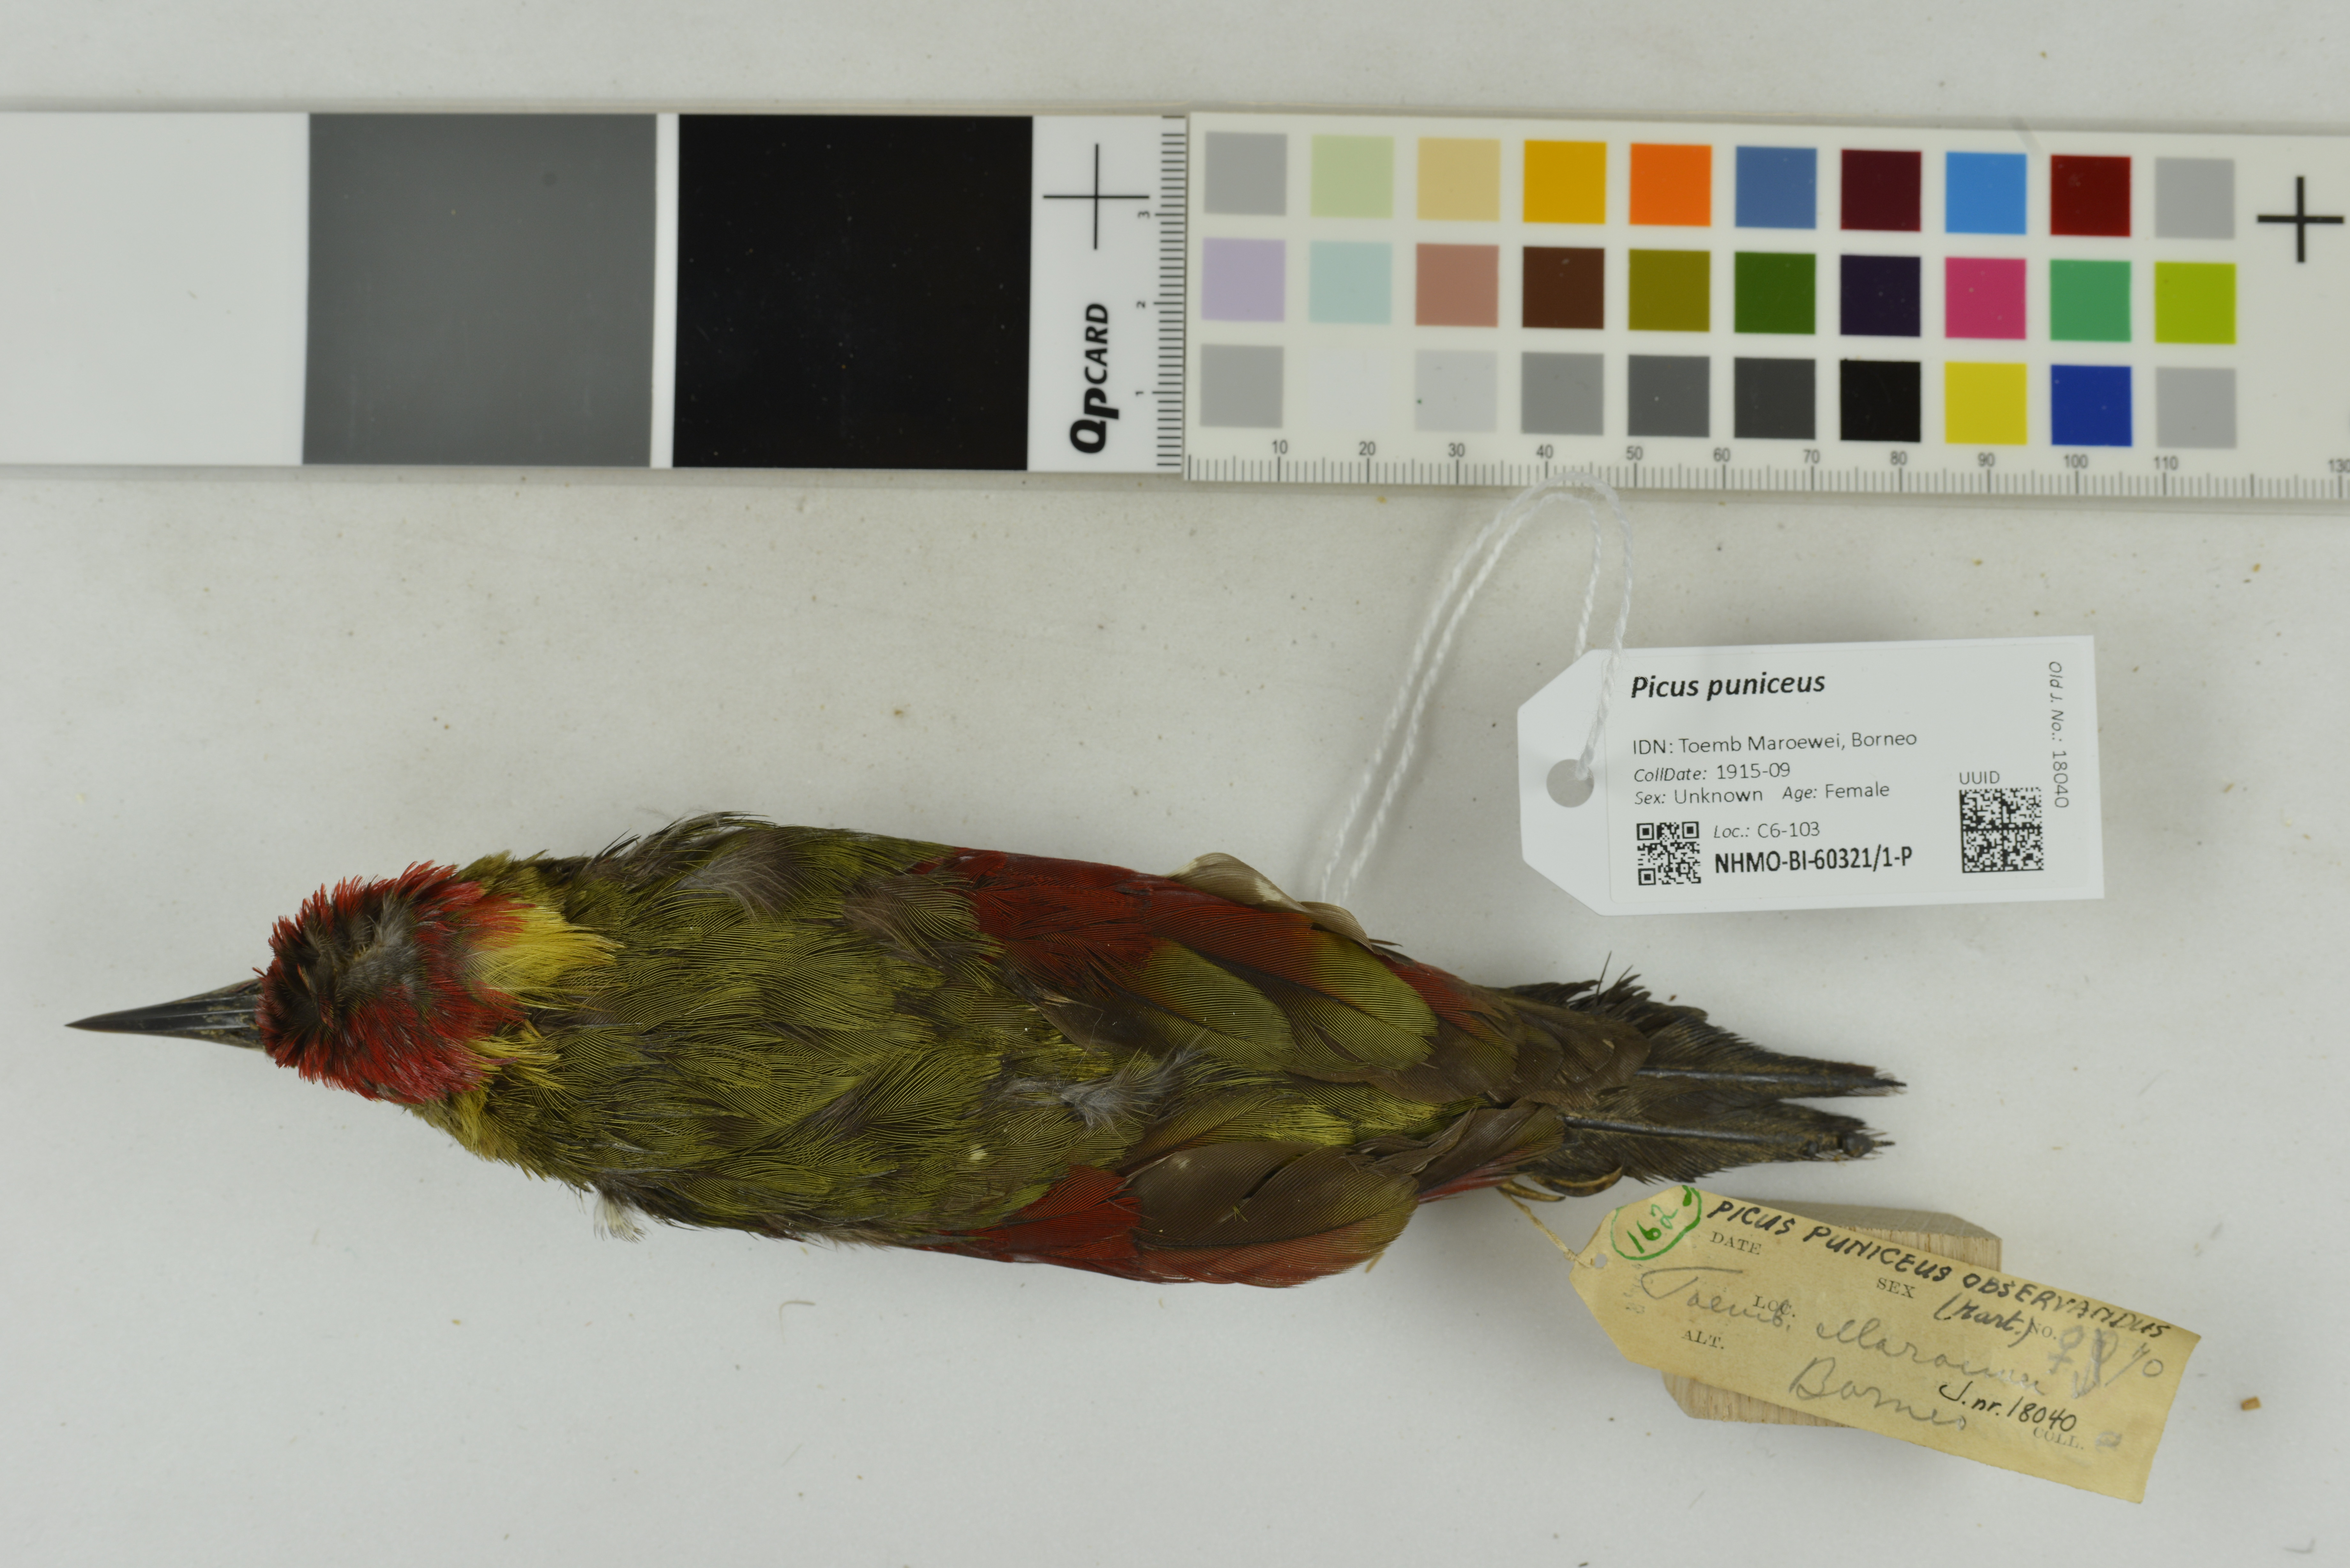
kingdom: Animalia
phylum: Chordata
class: Aves
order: Piciformes
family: Picidae
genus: Picus
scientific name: Picus puniceus
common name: Crimson-winged woodpecker
